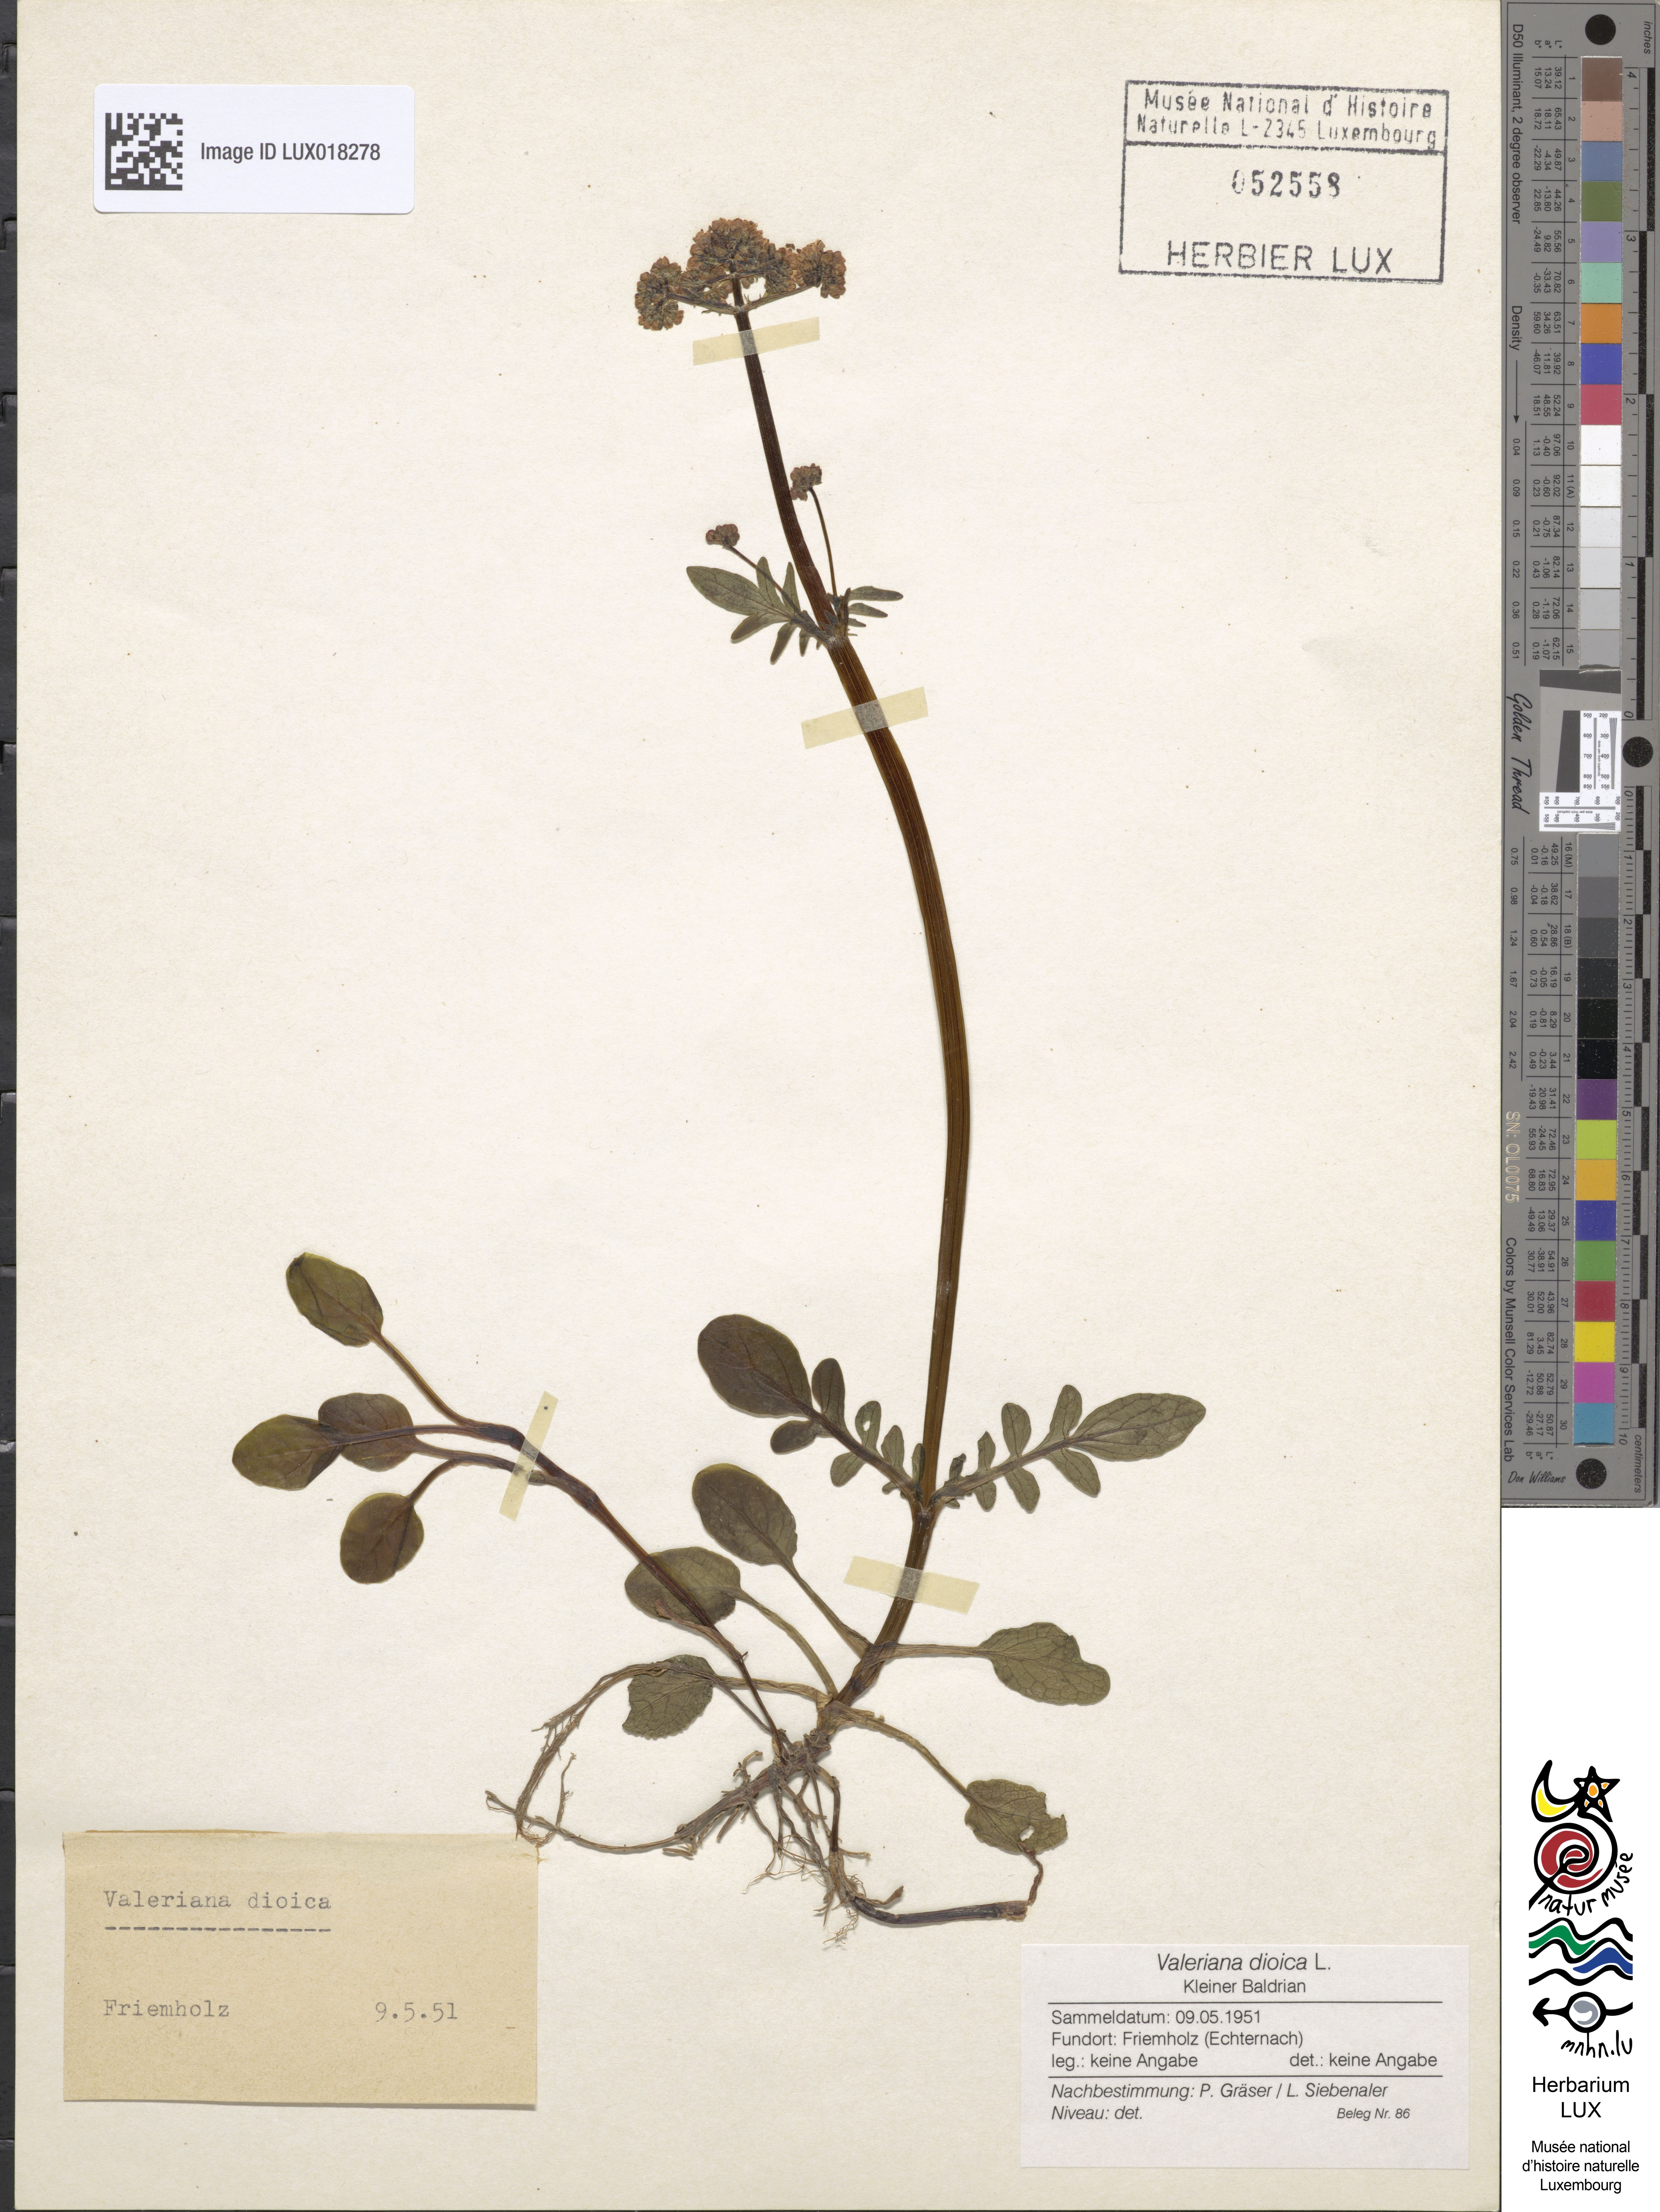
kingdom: Plantae
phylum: Tracheophyta
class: Magnoliopsida
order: Dipsacales
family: Caprifoliaceae
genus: Valeriana
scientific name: Valeriana dioica
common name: Marsh valerian
